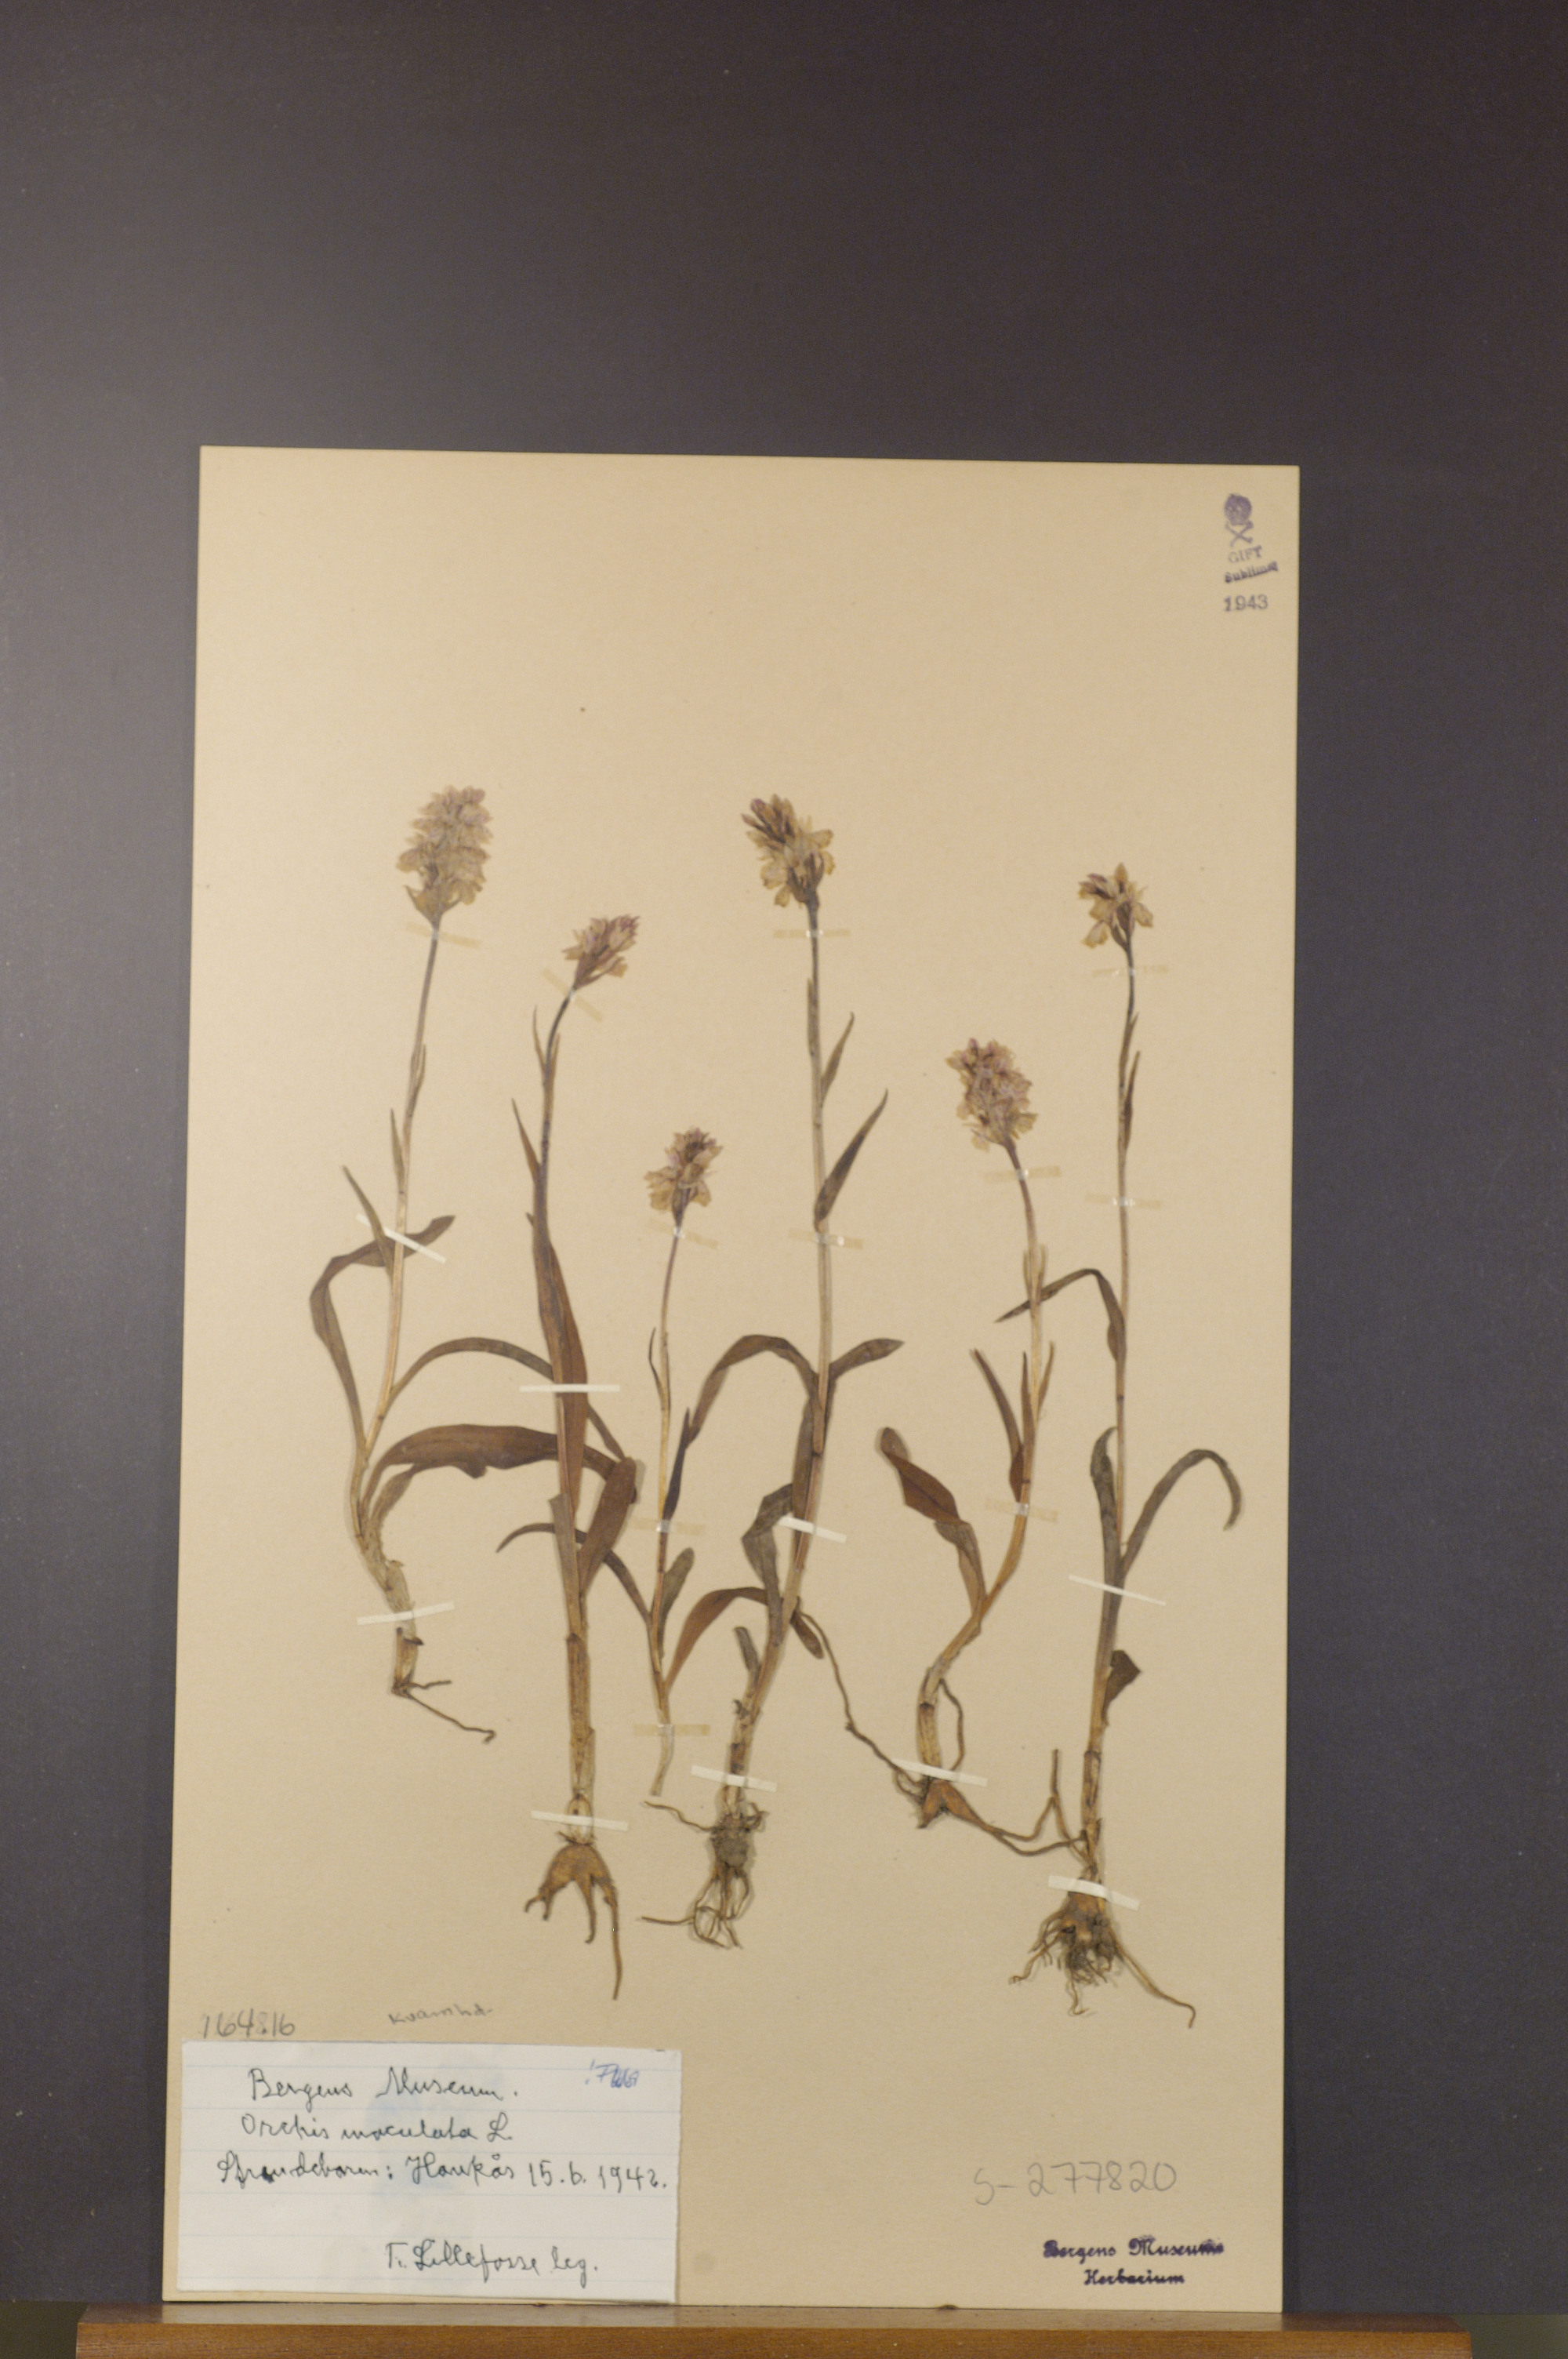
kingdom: Plantae
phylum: Tracheophyta
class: Liliopsida
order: Asparagales
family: Orchidaceae
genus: Dactylorhiza
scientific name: Dactylorhiza maculata
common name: Heath spotted-orchid
